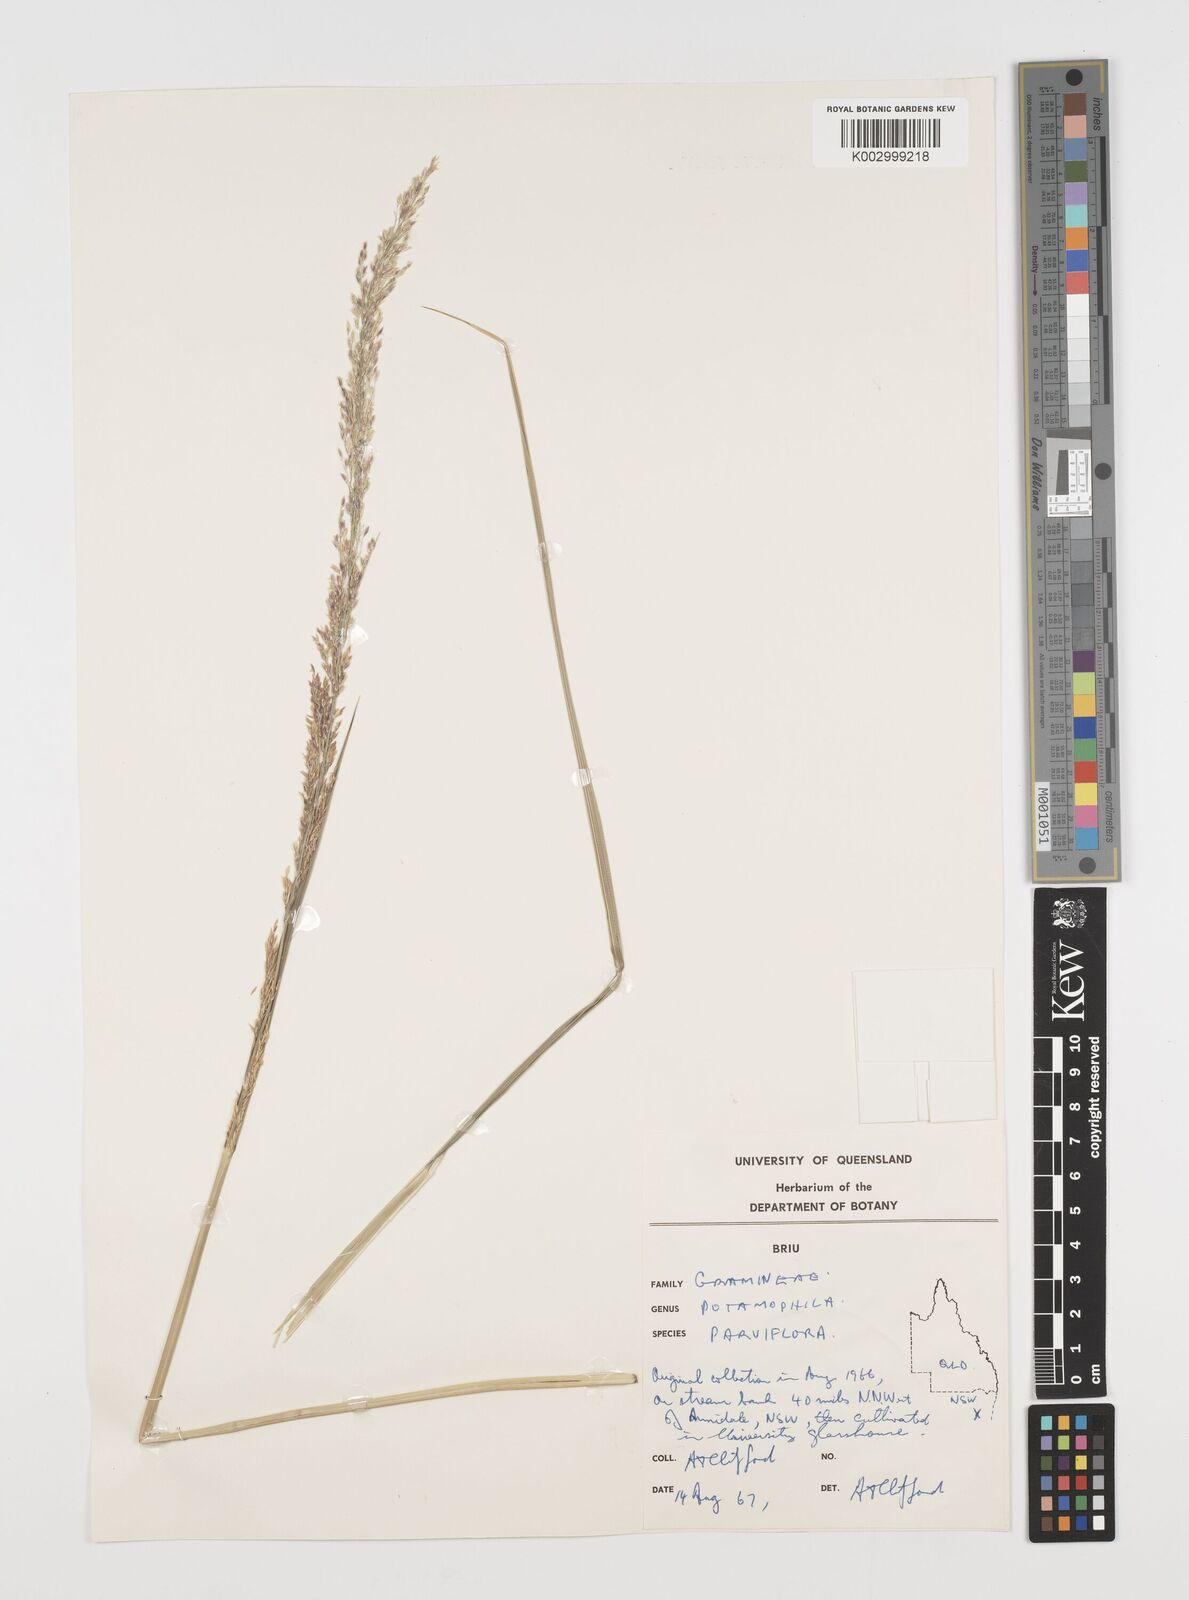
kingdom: Plantae
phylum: Tracheophyta
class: Magnoliopsida
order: Caryophyllales
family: Microteaceae
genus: Microtea
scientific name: Microtea maypurensis
